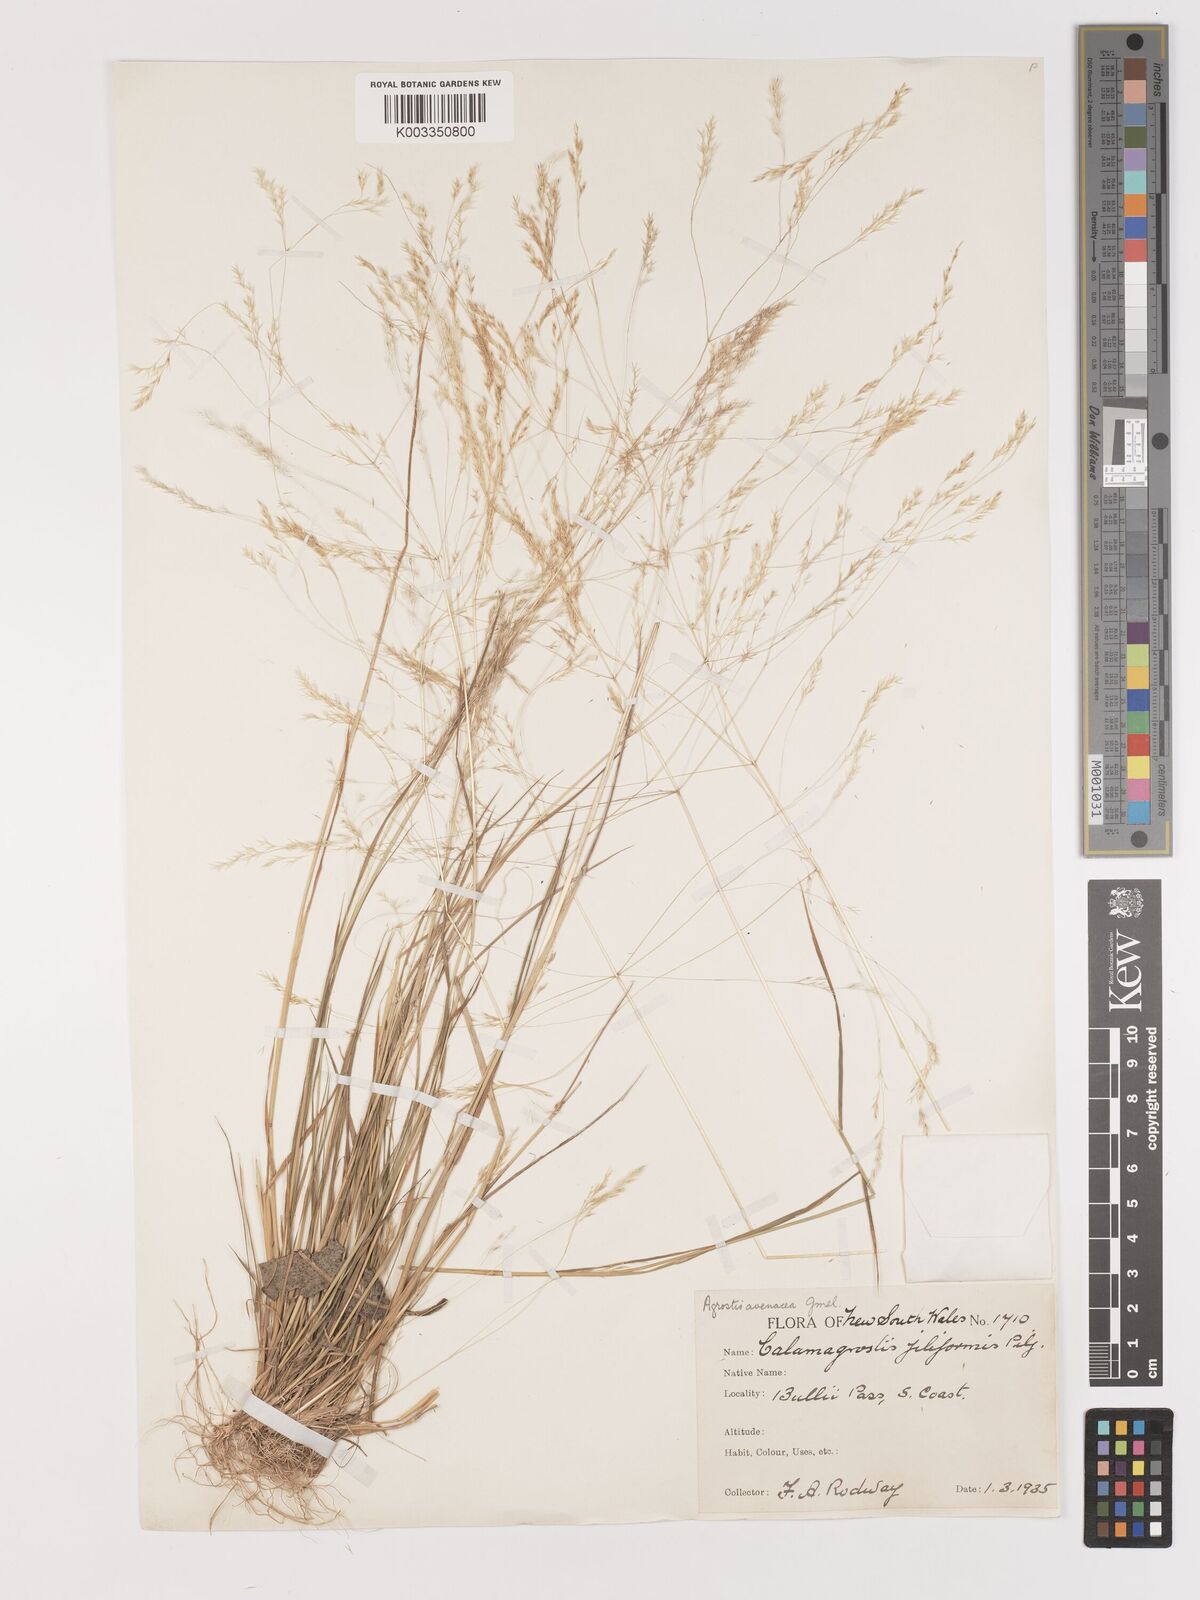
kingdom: Plantae
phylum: Tracheophyta
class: Liliopsida
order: Poales
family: Poaceae
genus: Lachnagrostis
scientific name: Lachnagrostis filiformis
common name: Bentgrass
